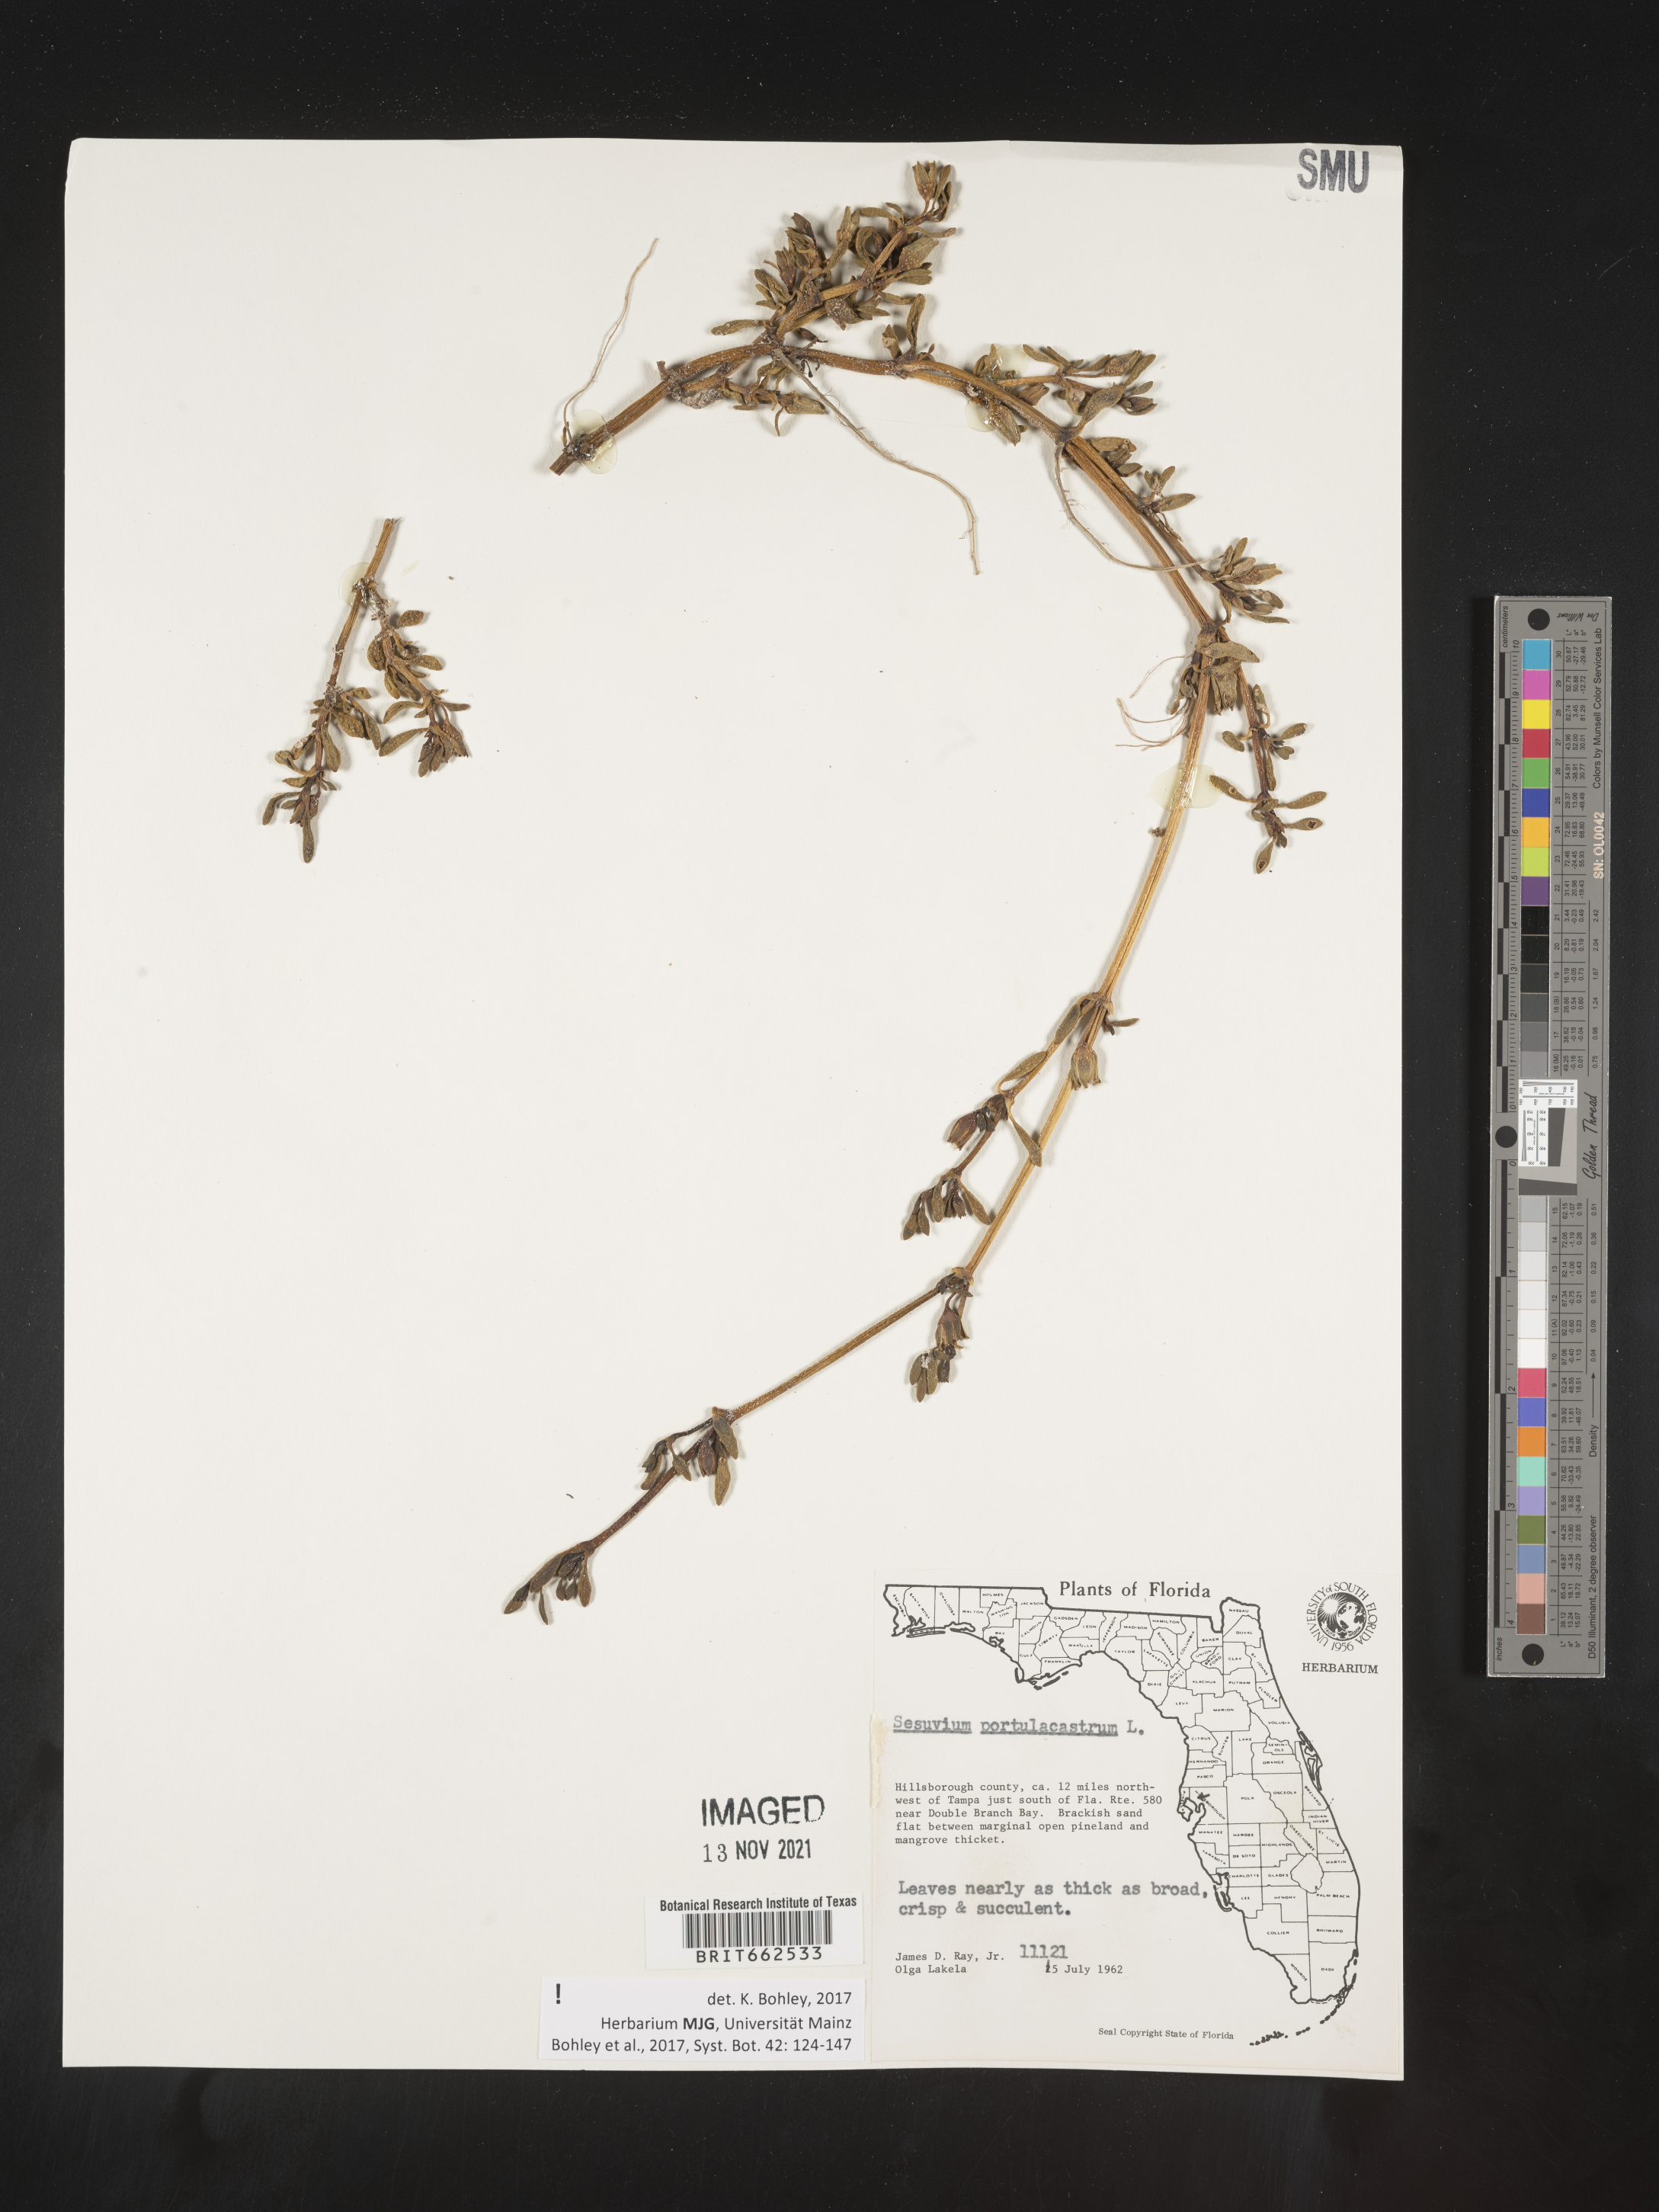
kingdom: Plantae
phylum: Tracheophyta
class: Magnoliopsida
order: Caryophyllales
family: Aizoaceae
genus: Sesuvium
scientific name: Sesuvium portulacastrum
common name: Sea-purslane
